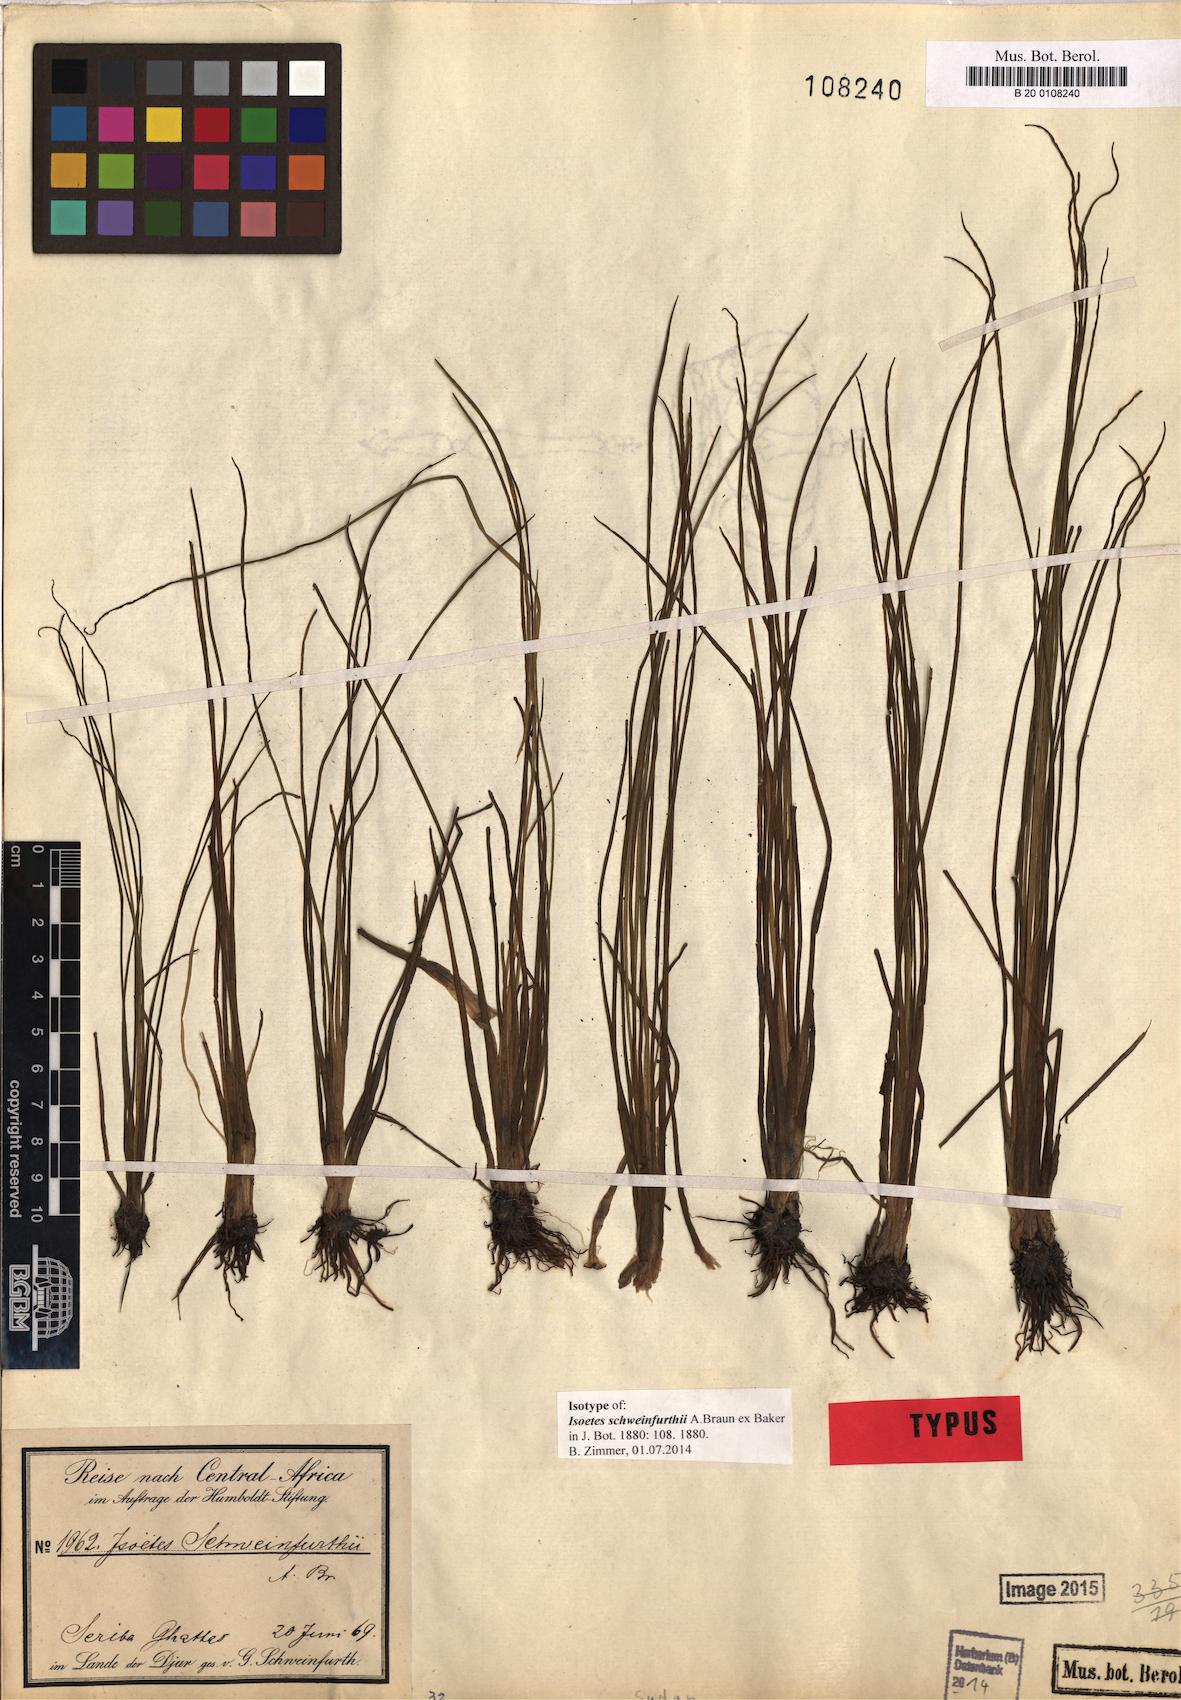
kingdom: Plantae
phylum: Tracheophyta
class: Lycopodiopsida
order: Isoetales
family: Isoetaceae
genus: Isoetes
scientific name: Isoetes schweinfurthii
